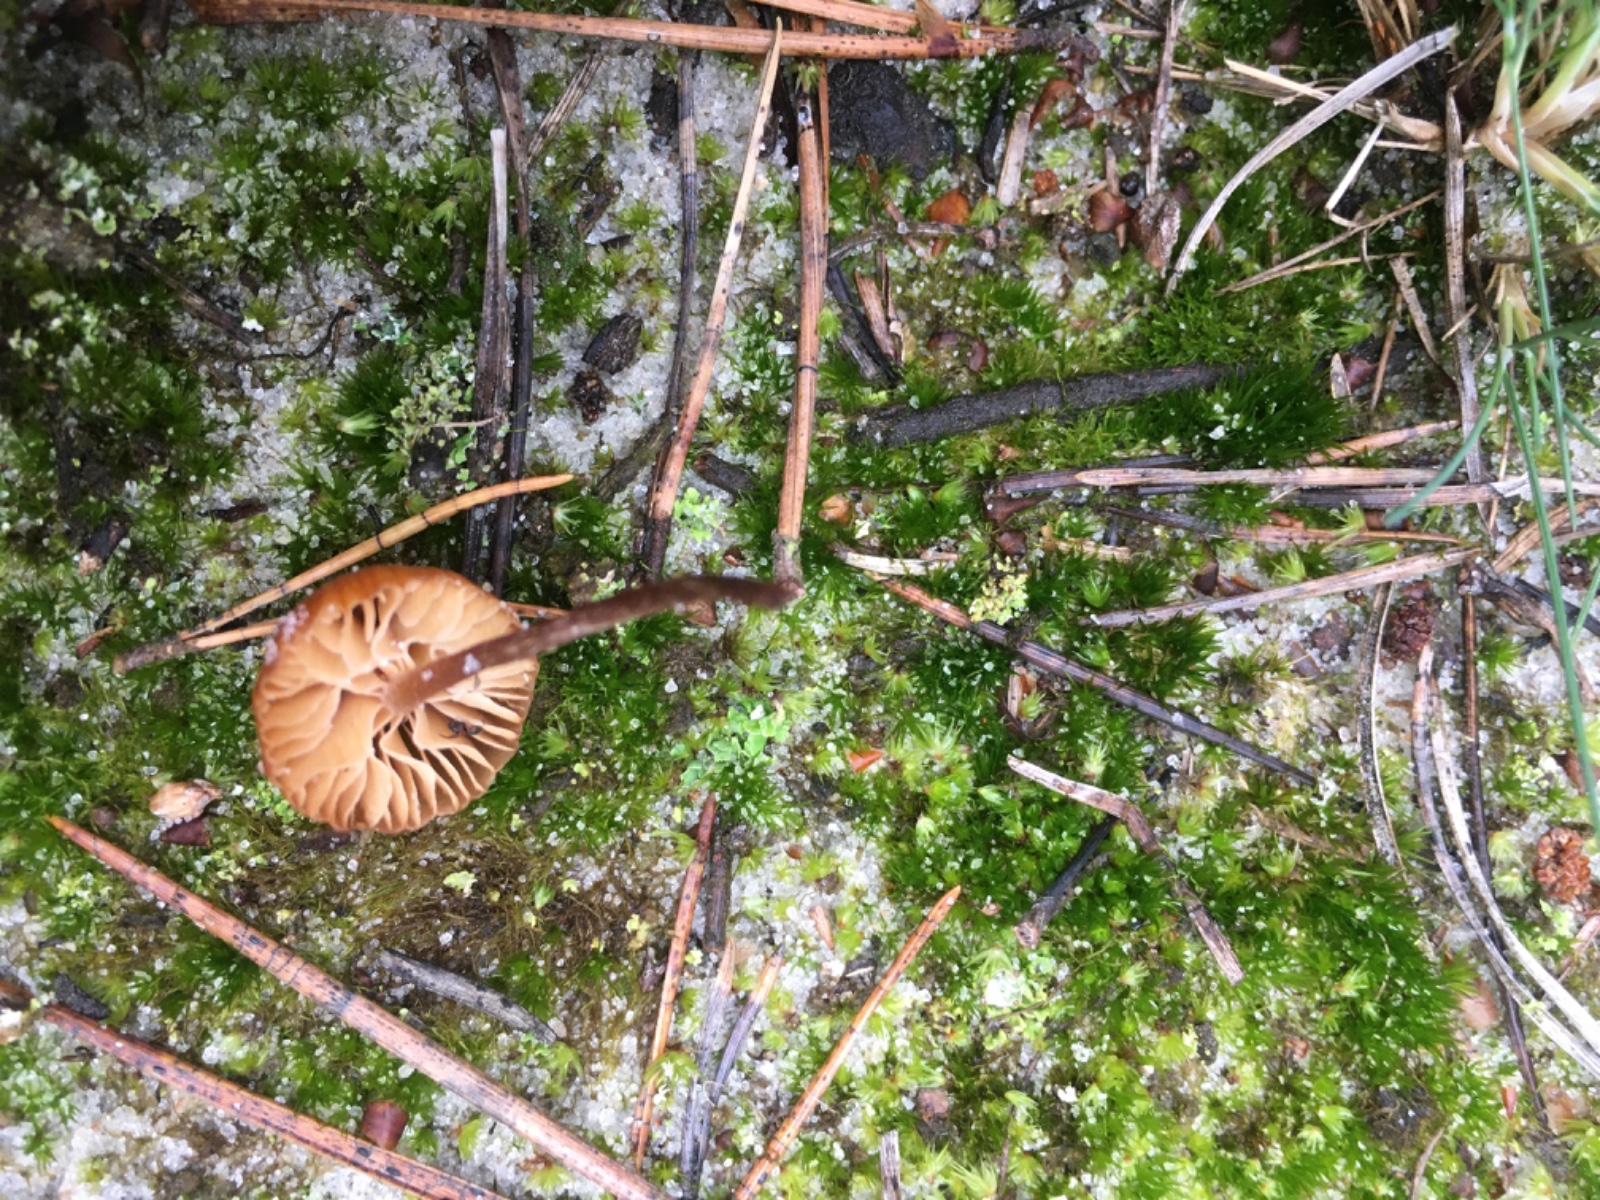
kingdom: Fungi
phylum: Basidiomycota
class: Agaricomycetes
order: Agaricales
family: Hymenogastraceae
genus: Galerina
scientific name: Galerina
